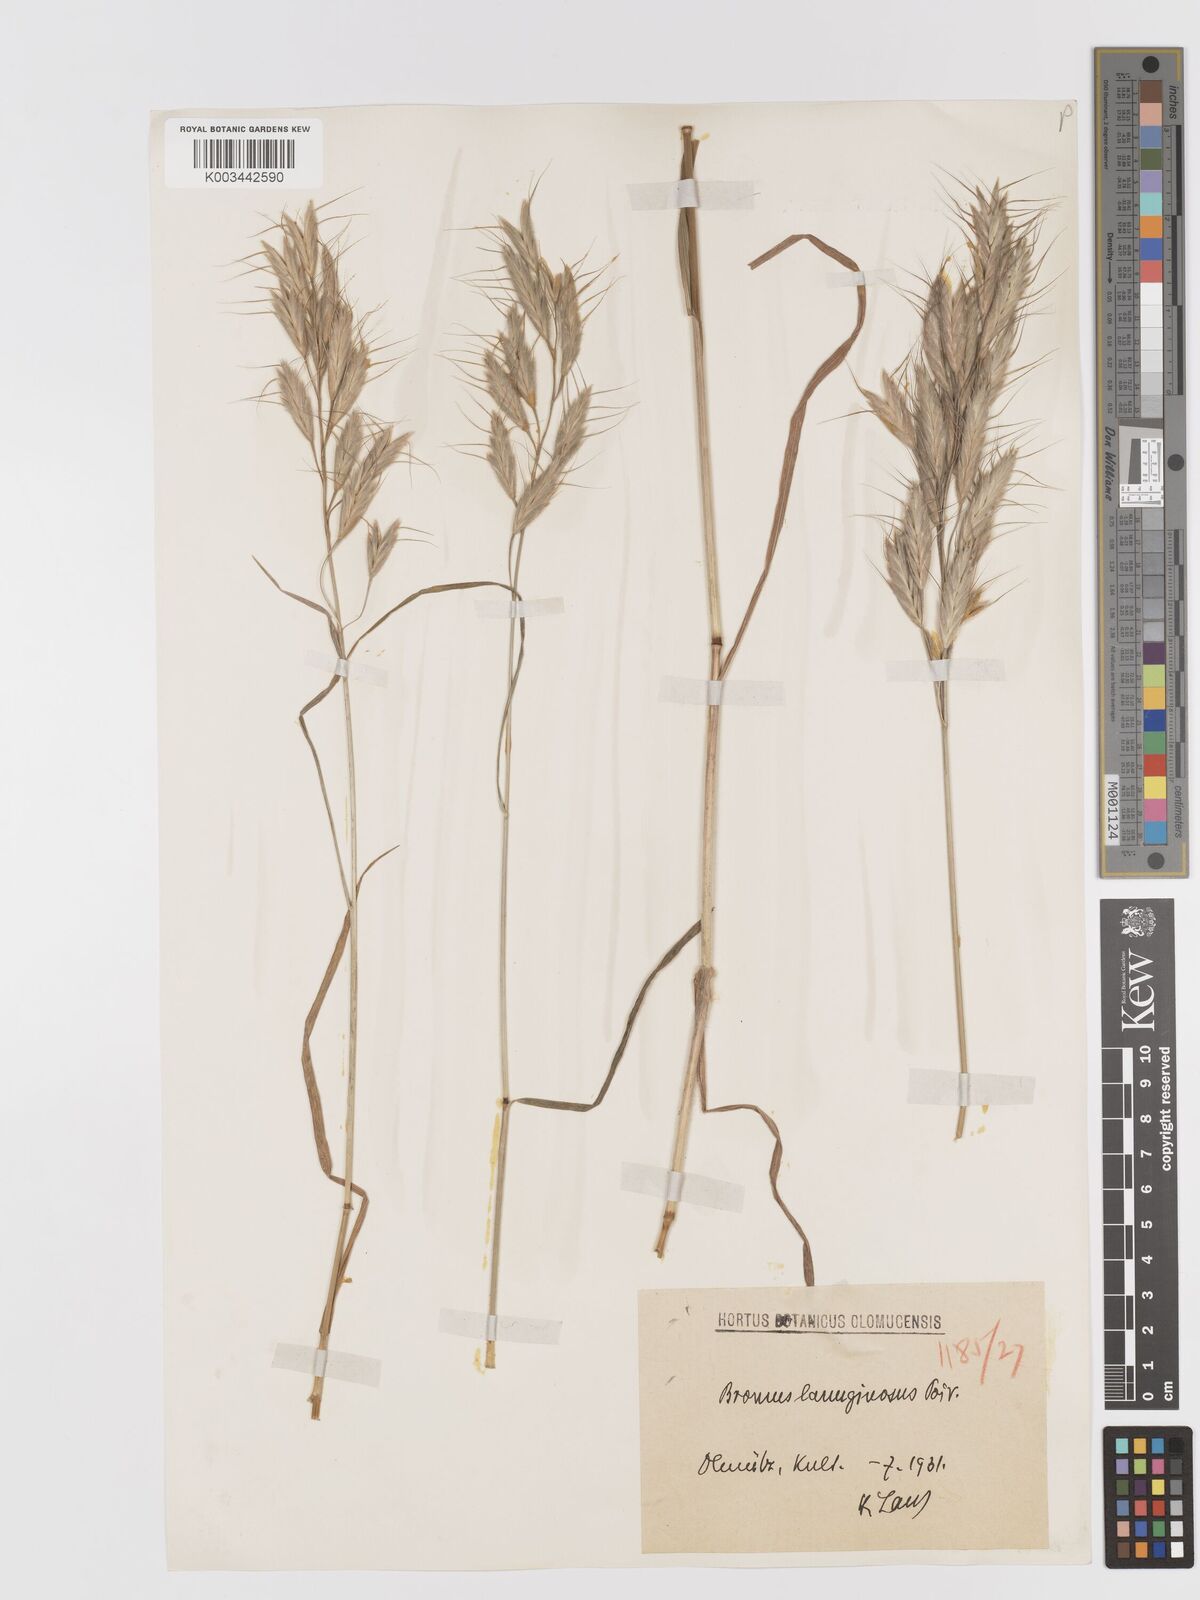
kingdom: Plantae
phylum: Tracheophyta
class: Liliopsida
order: Poales
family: Poaceae
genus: Bromus
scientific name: Bromus lanceolatus
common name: Mediterranean brome
